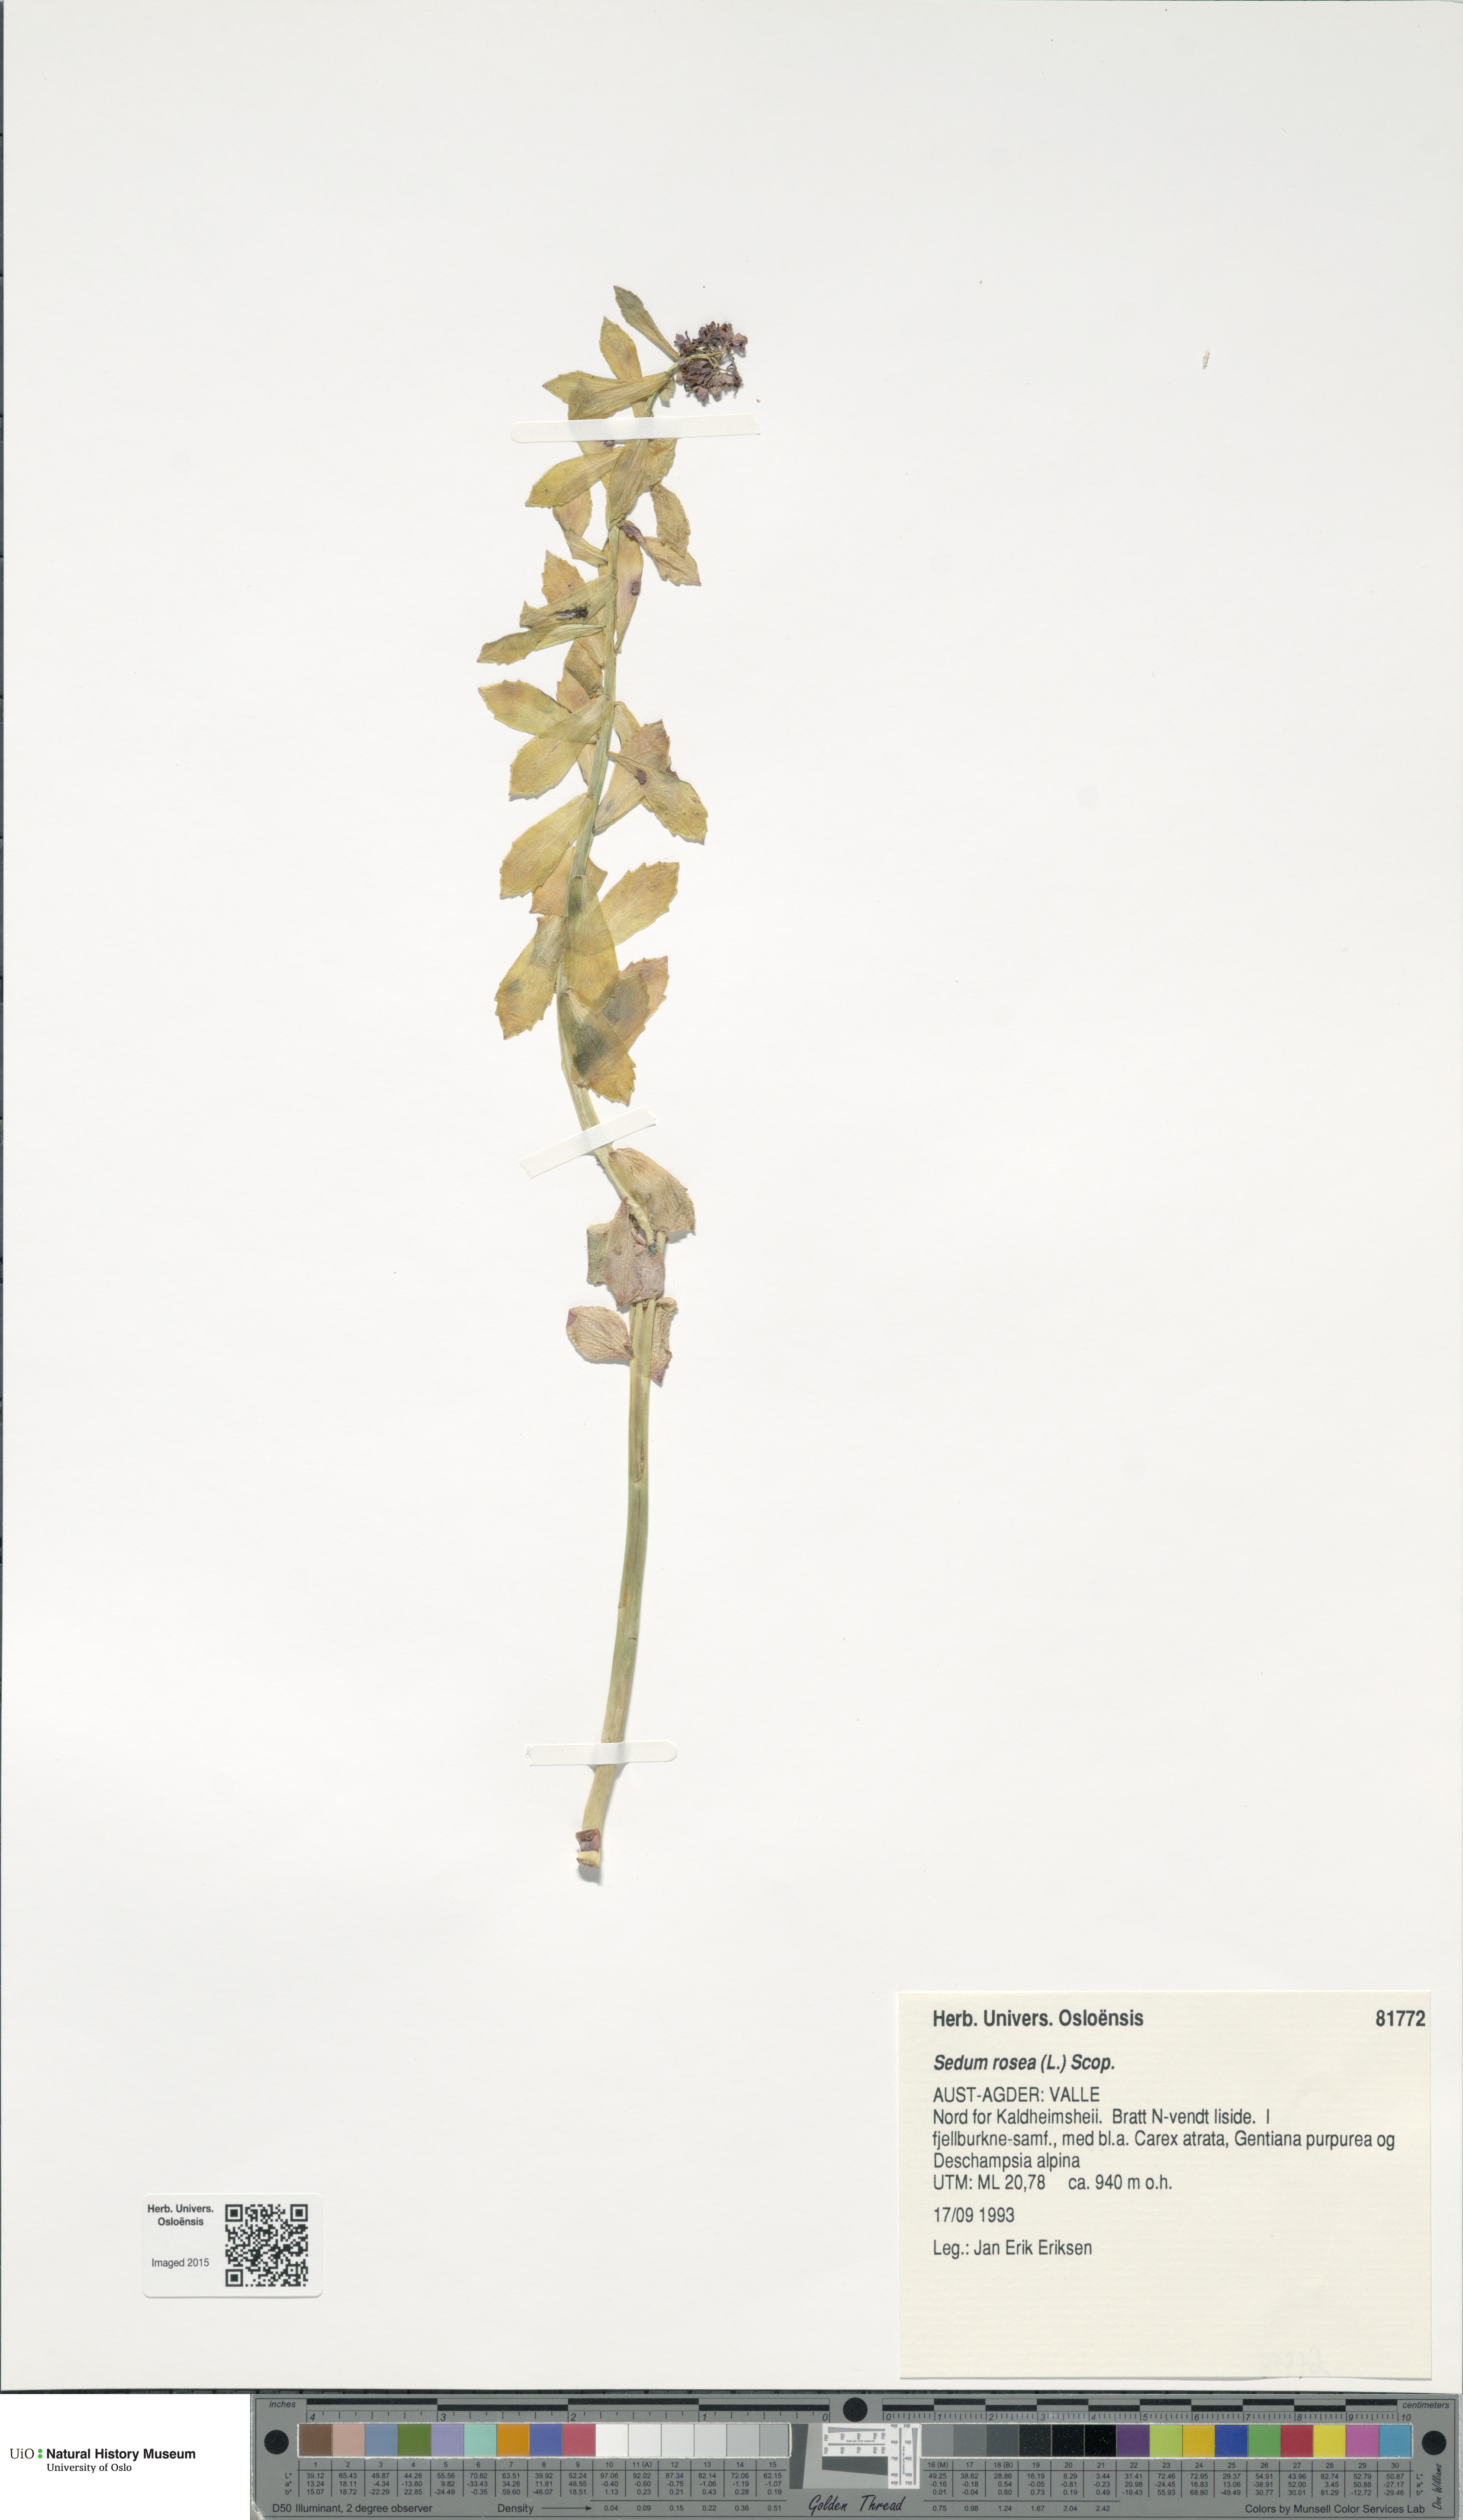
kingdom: Plantae
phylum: Tracheophyta
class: Magnoliopsida
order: Saxifragales
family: Crassulaceae
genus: Rhodiola
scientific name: Rhodiola rosea
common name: Roseroot
